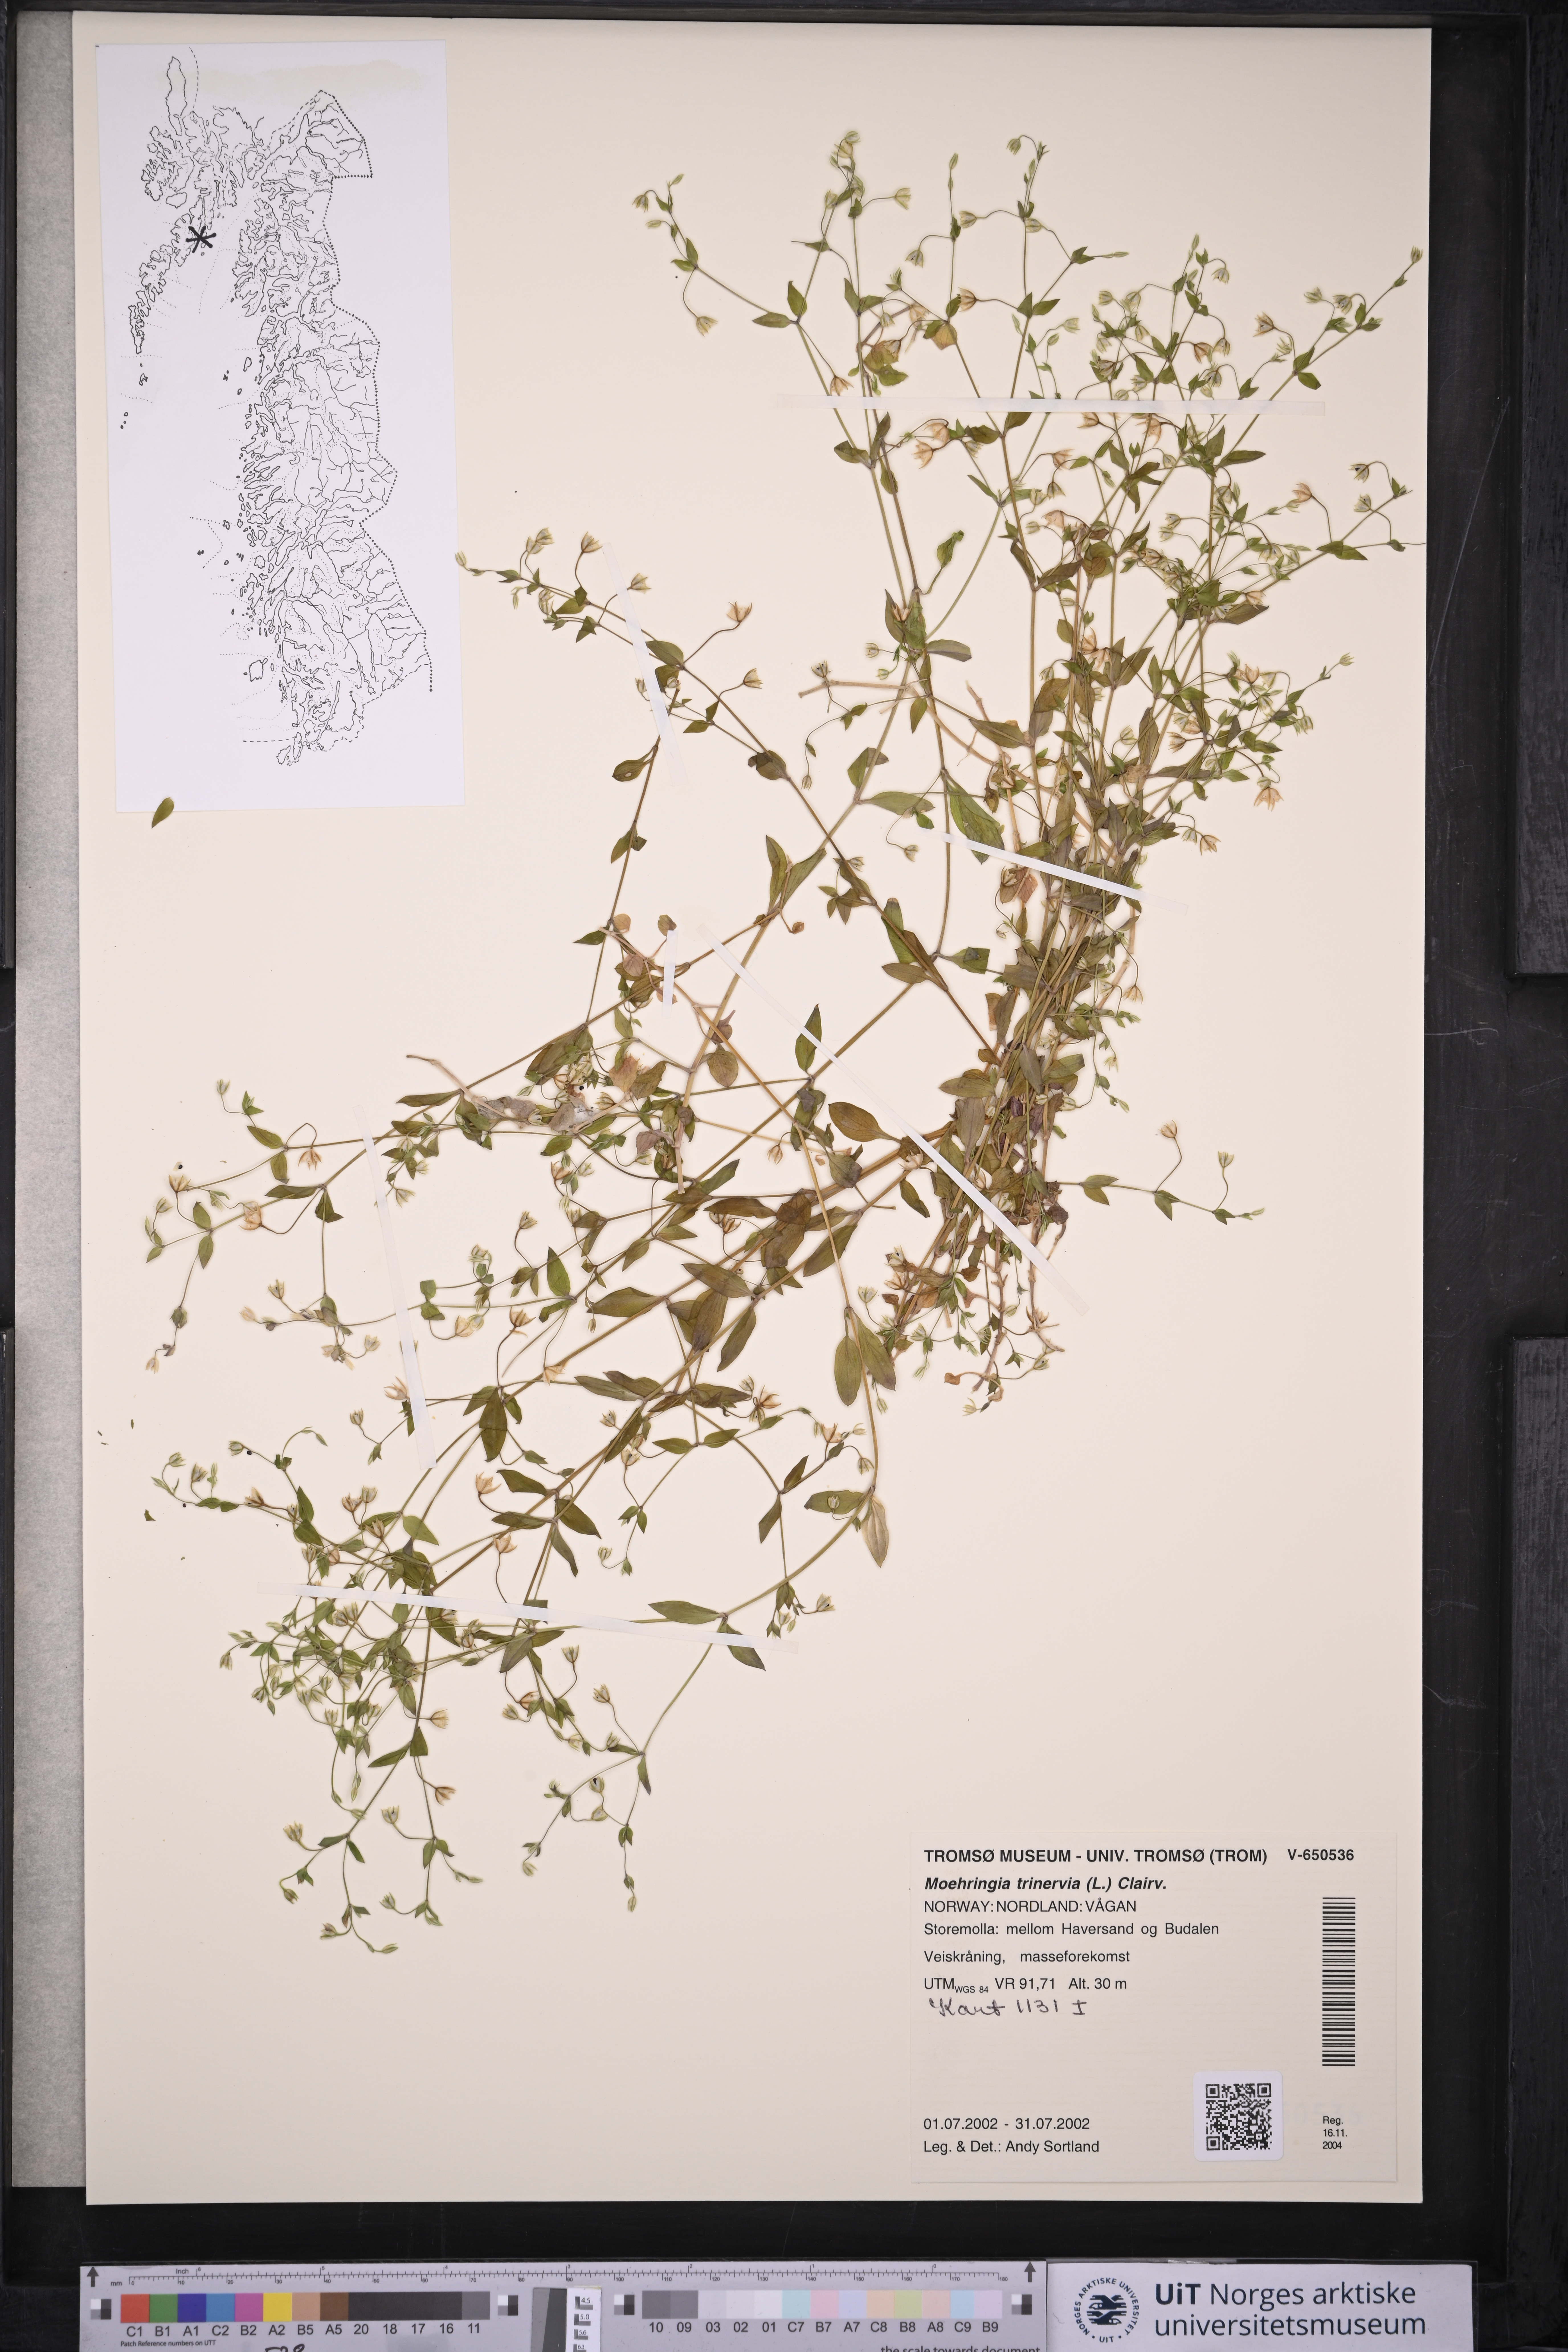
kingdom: Plantae
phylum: Tracheophyta
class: Magnoliopsida
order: Caryophyllales
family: Caryophyllaceae
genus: Moehringia
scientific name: Moehringia trinervia
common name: Three-nerved sandwort
